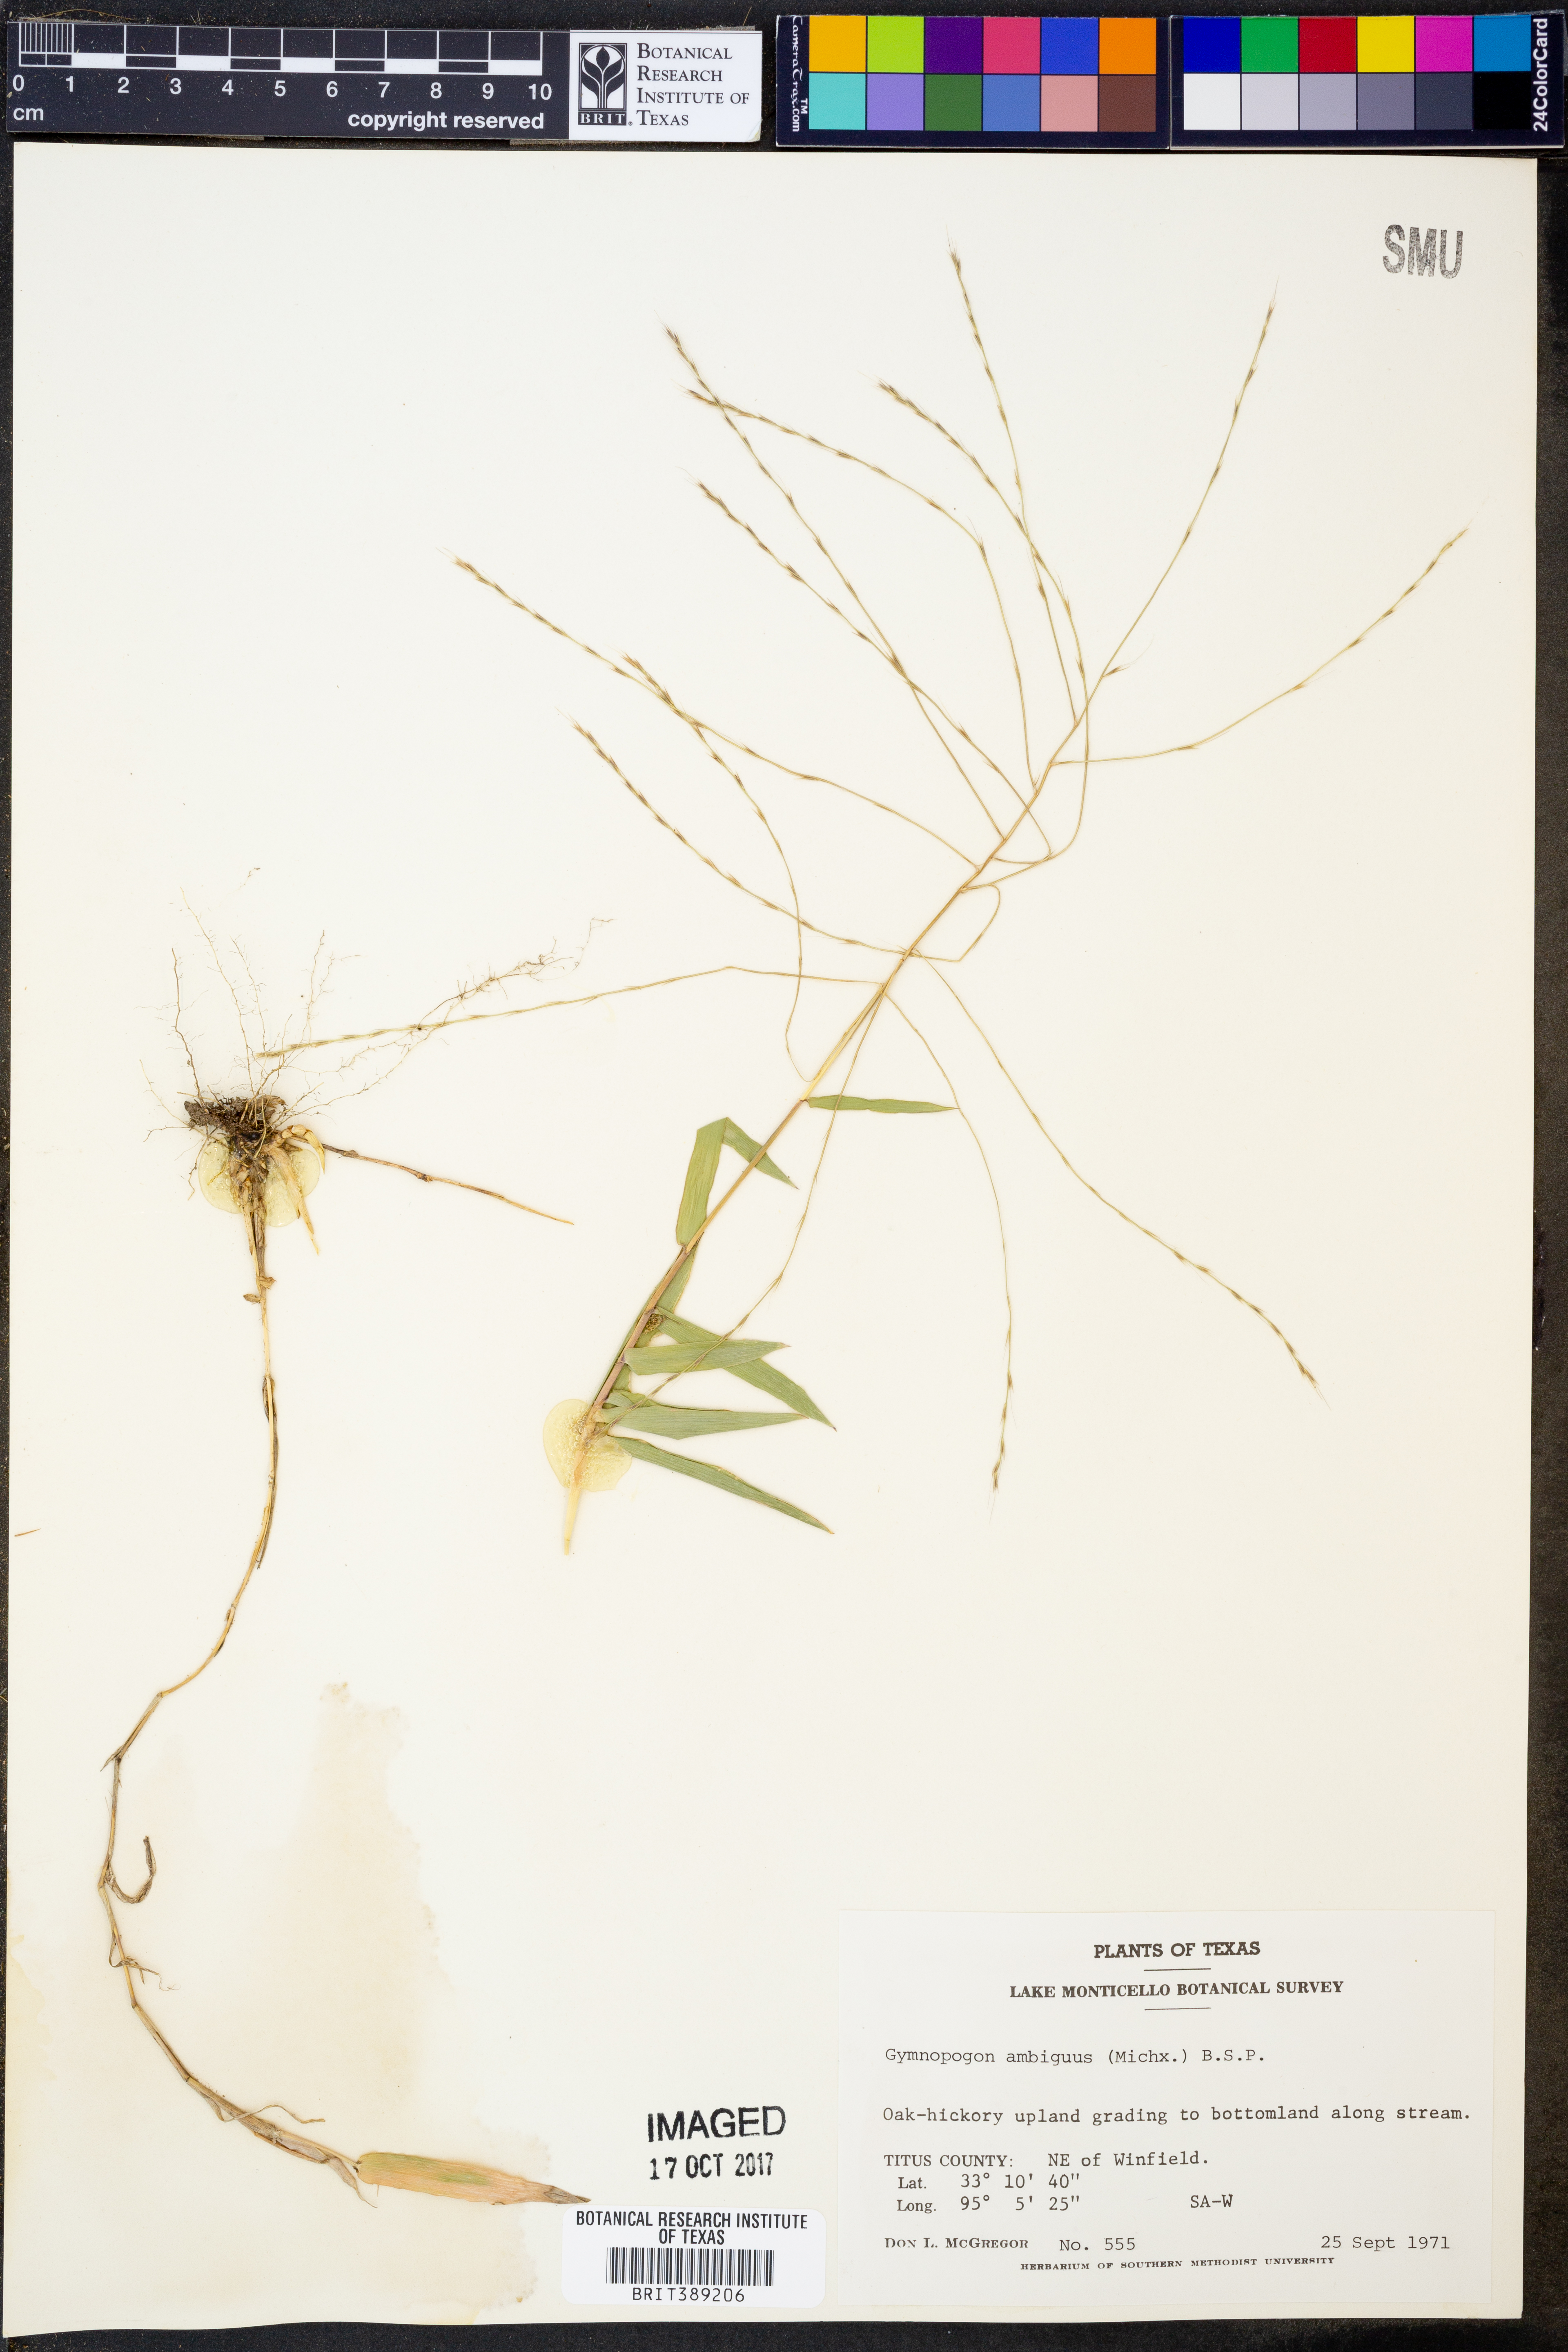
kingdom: Plantae
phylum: Tracheophyta
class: Liliopsida
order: Poales
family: Poaceae
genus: Gymnopogon
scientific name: Gymnopogon ambiguus
